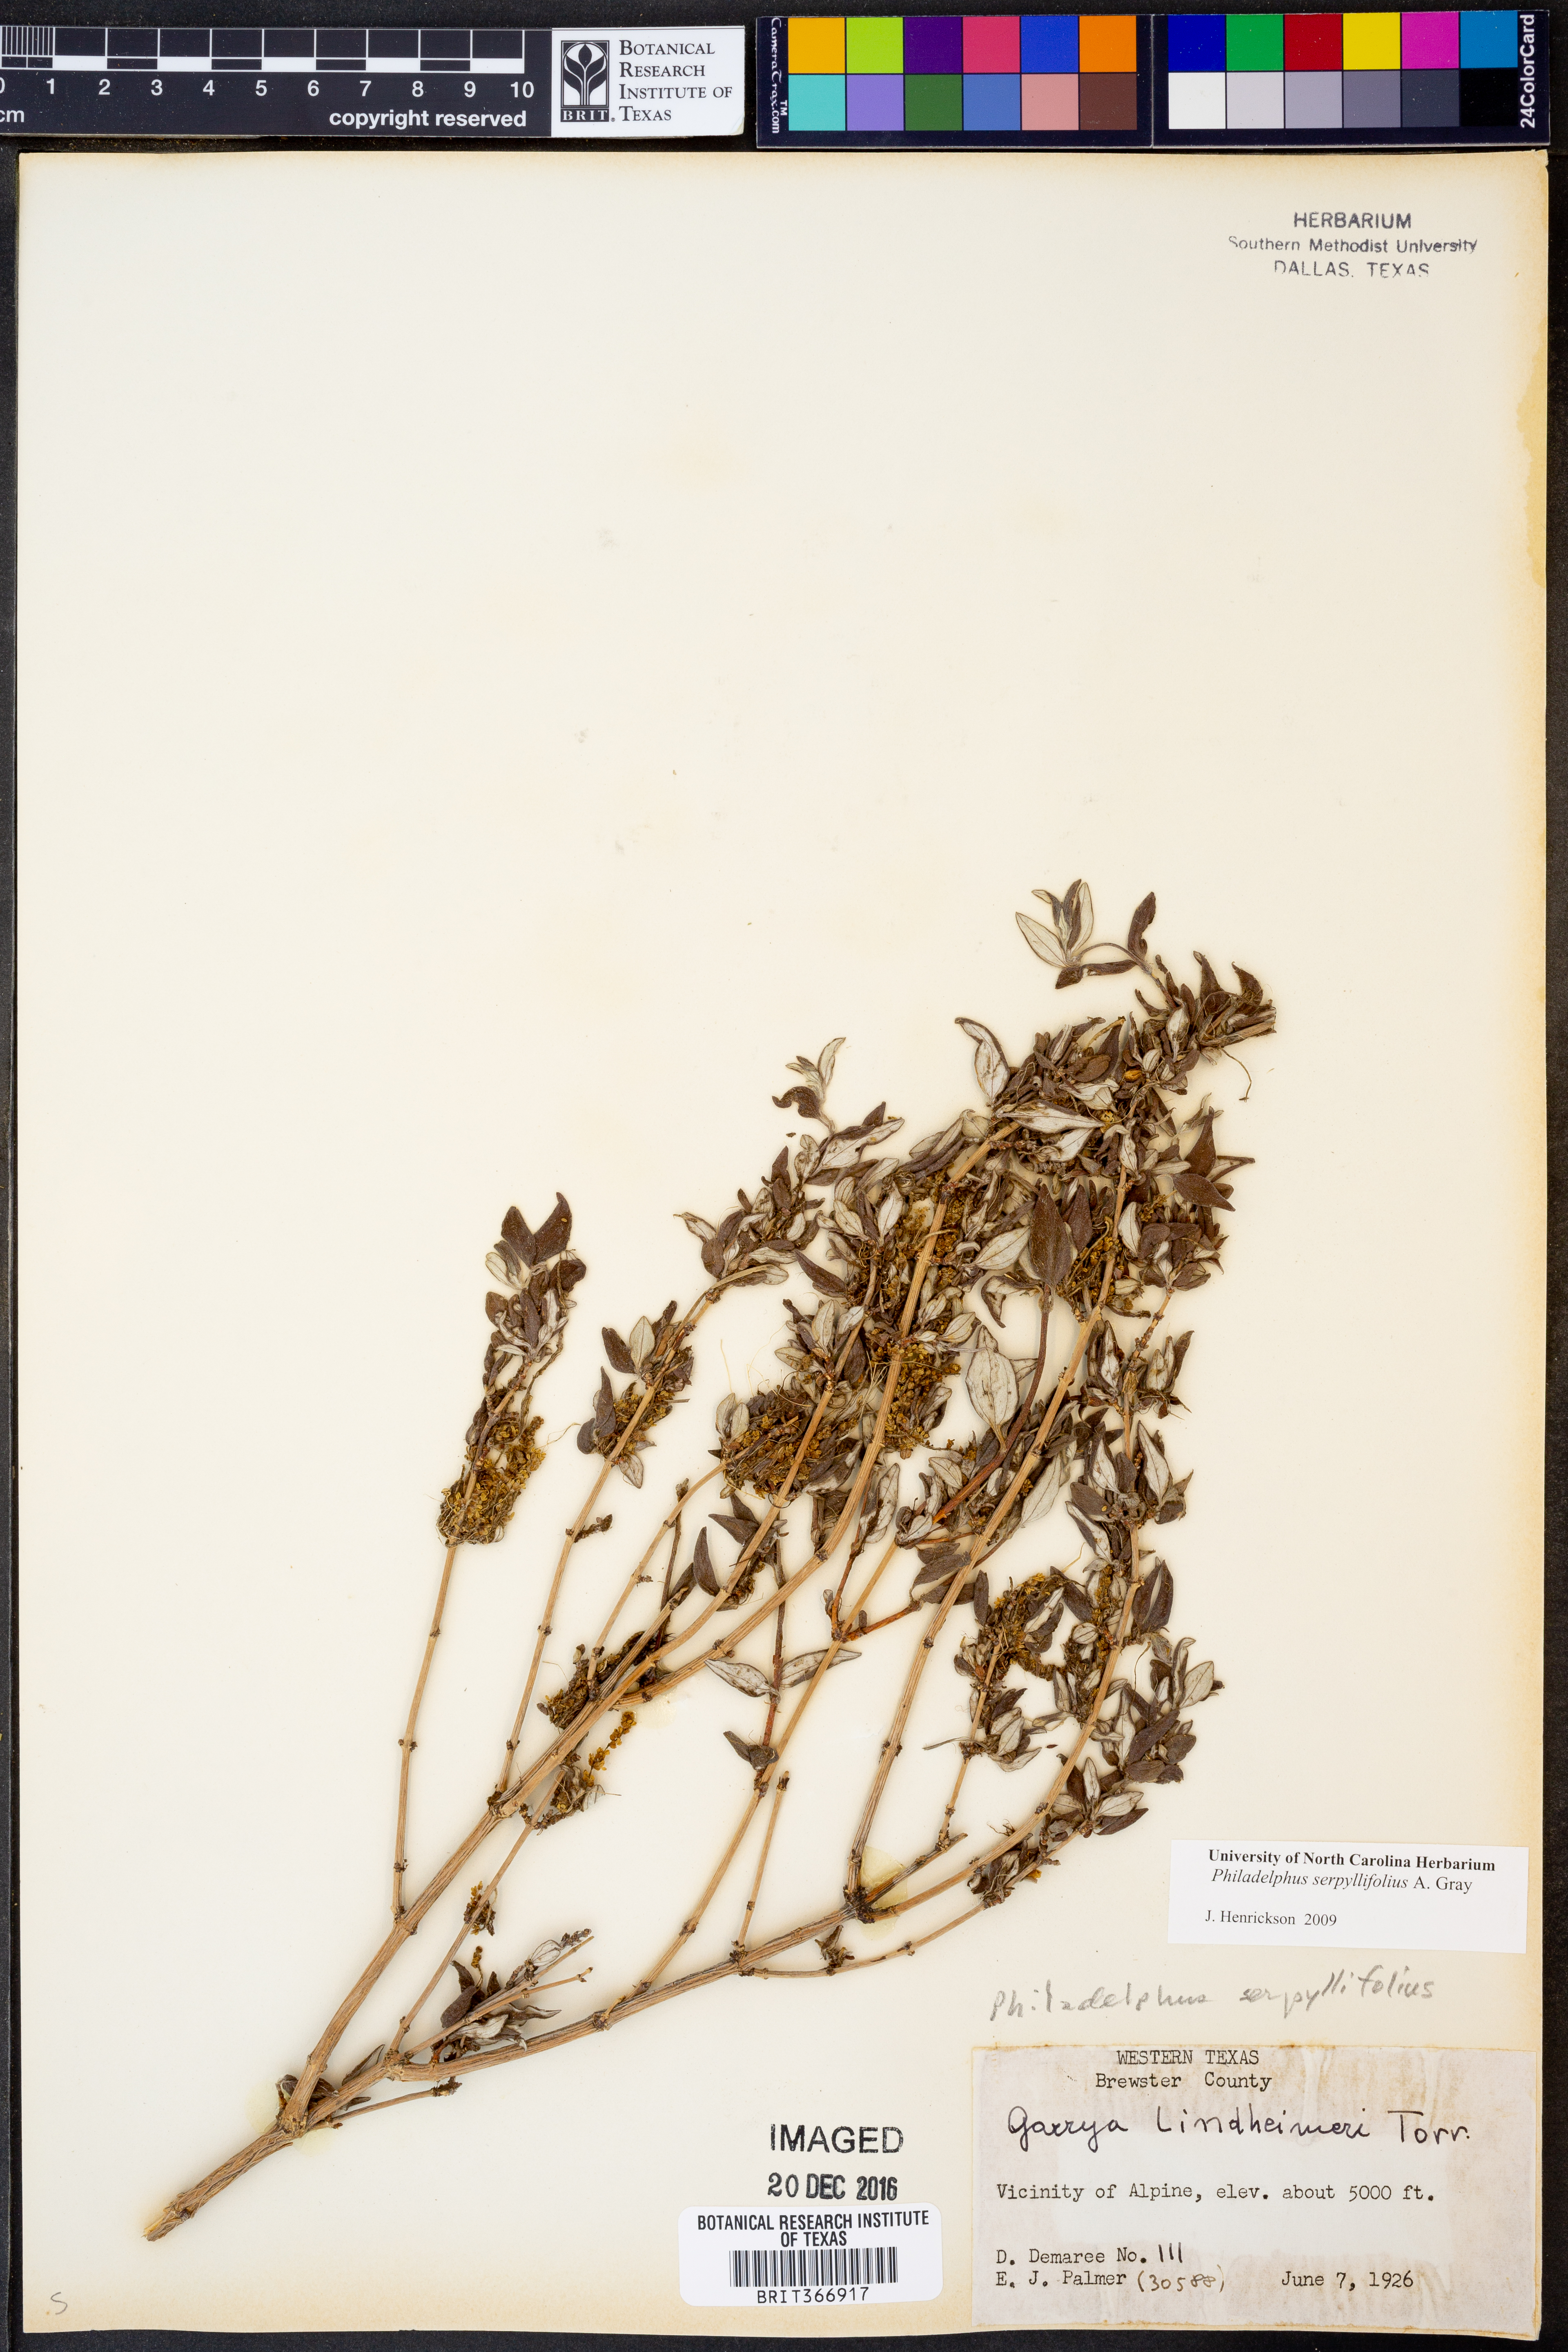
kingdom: Plantae
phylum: Tracheophyta
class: Magnoliopsida
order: Cornales
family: Hydrangeaceae
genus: Philadelphus
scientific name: Philadelphus serpyllifolius
